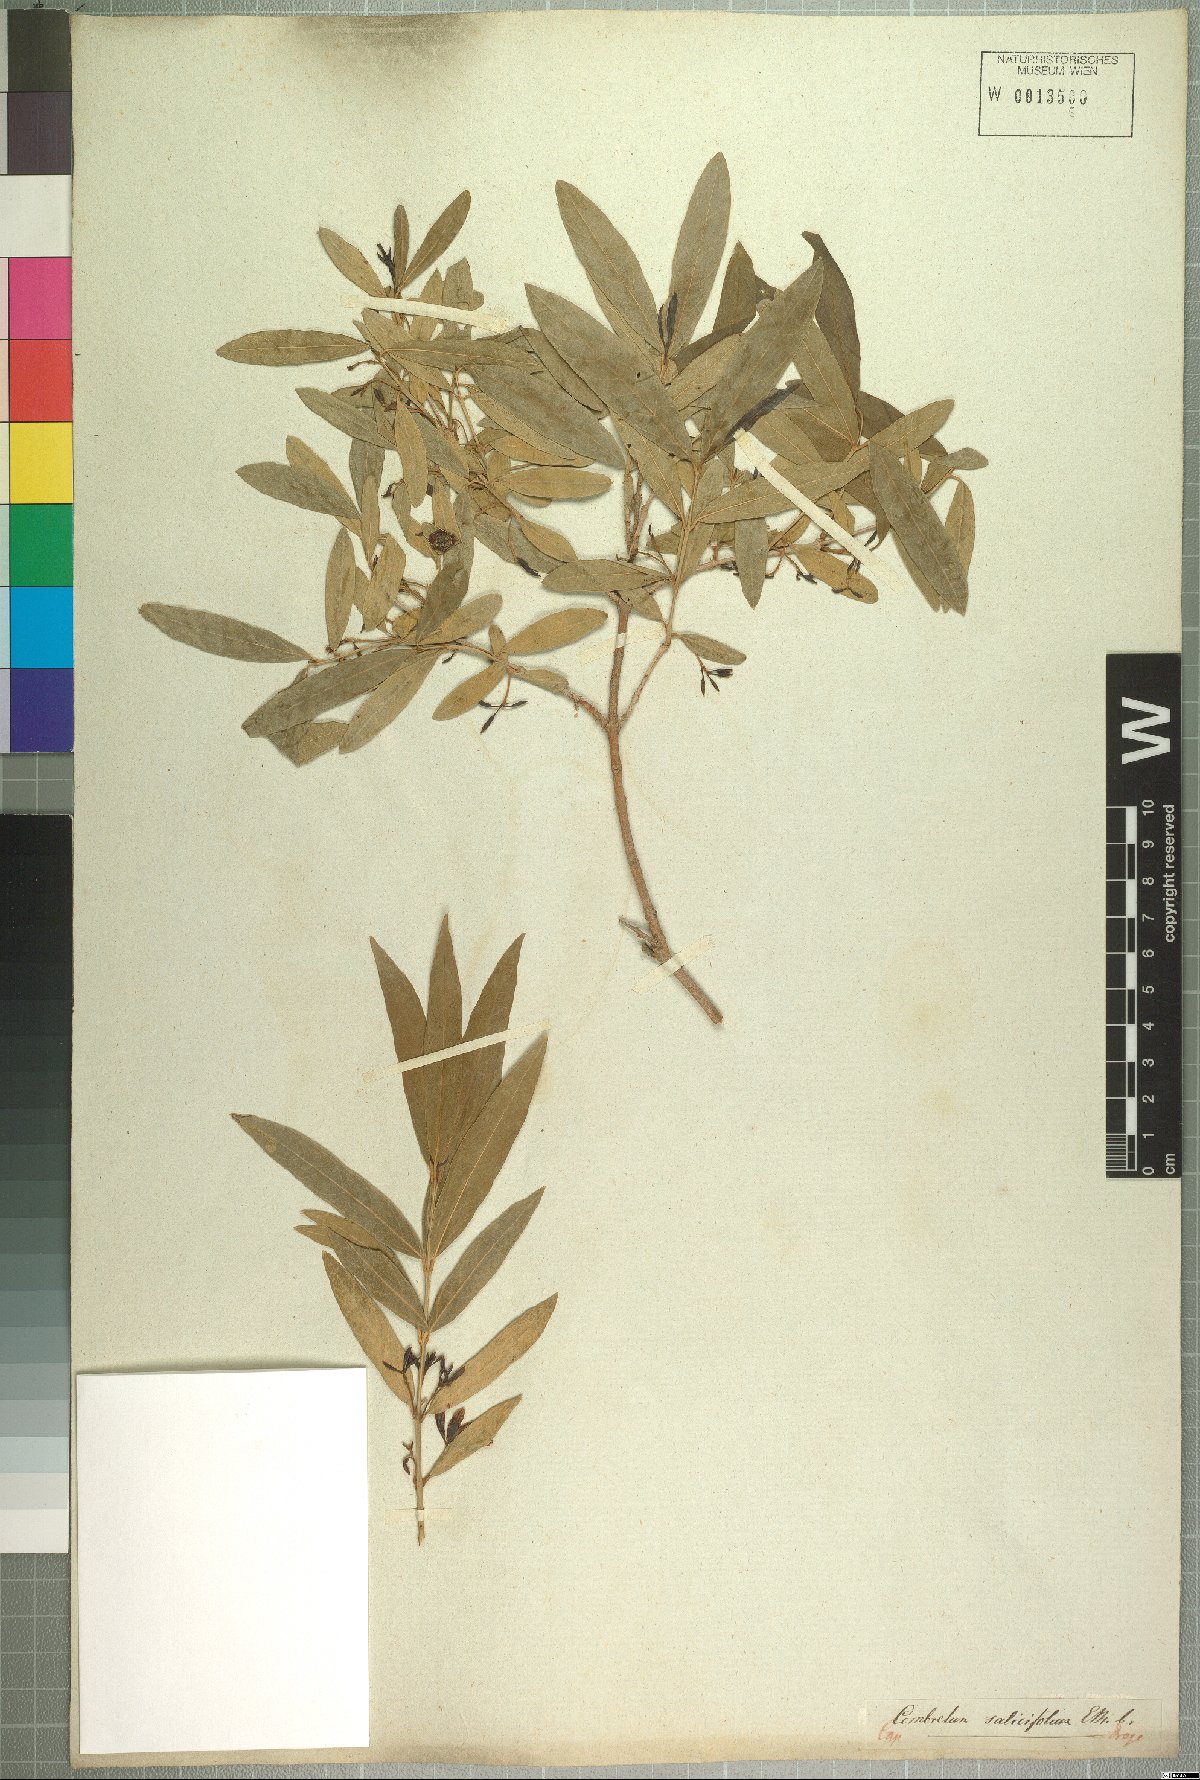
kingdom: Plantae
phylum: Tracheophyta
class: Magnoliopsida
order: Myrtales
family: Combretaceae
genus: Combretum
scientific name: Combretum caffrum
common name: Cape bushwillow
